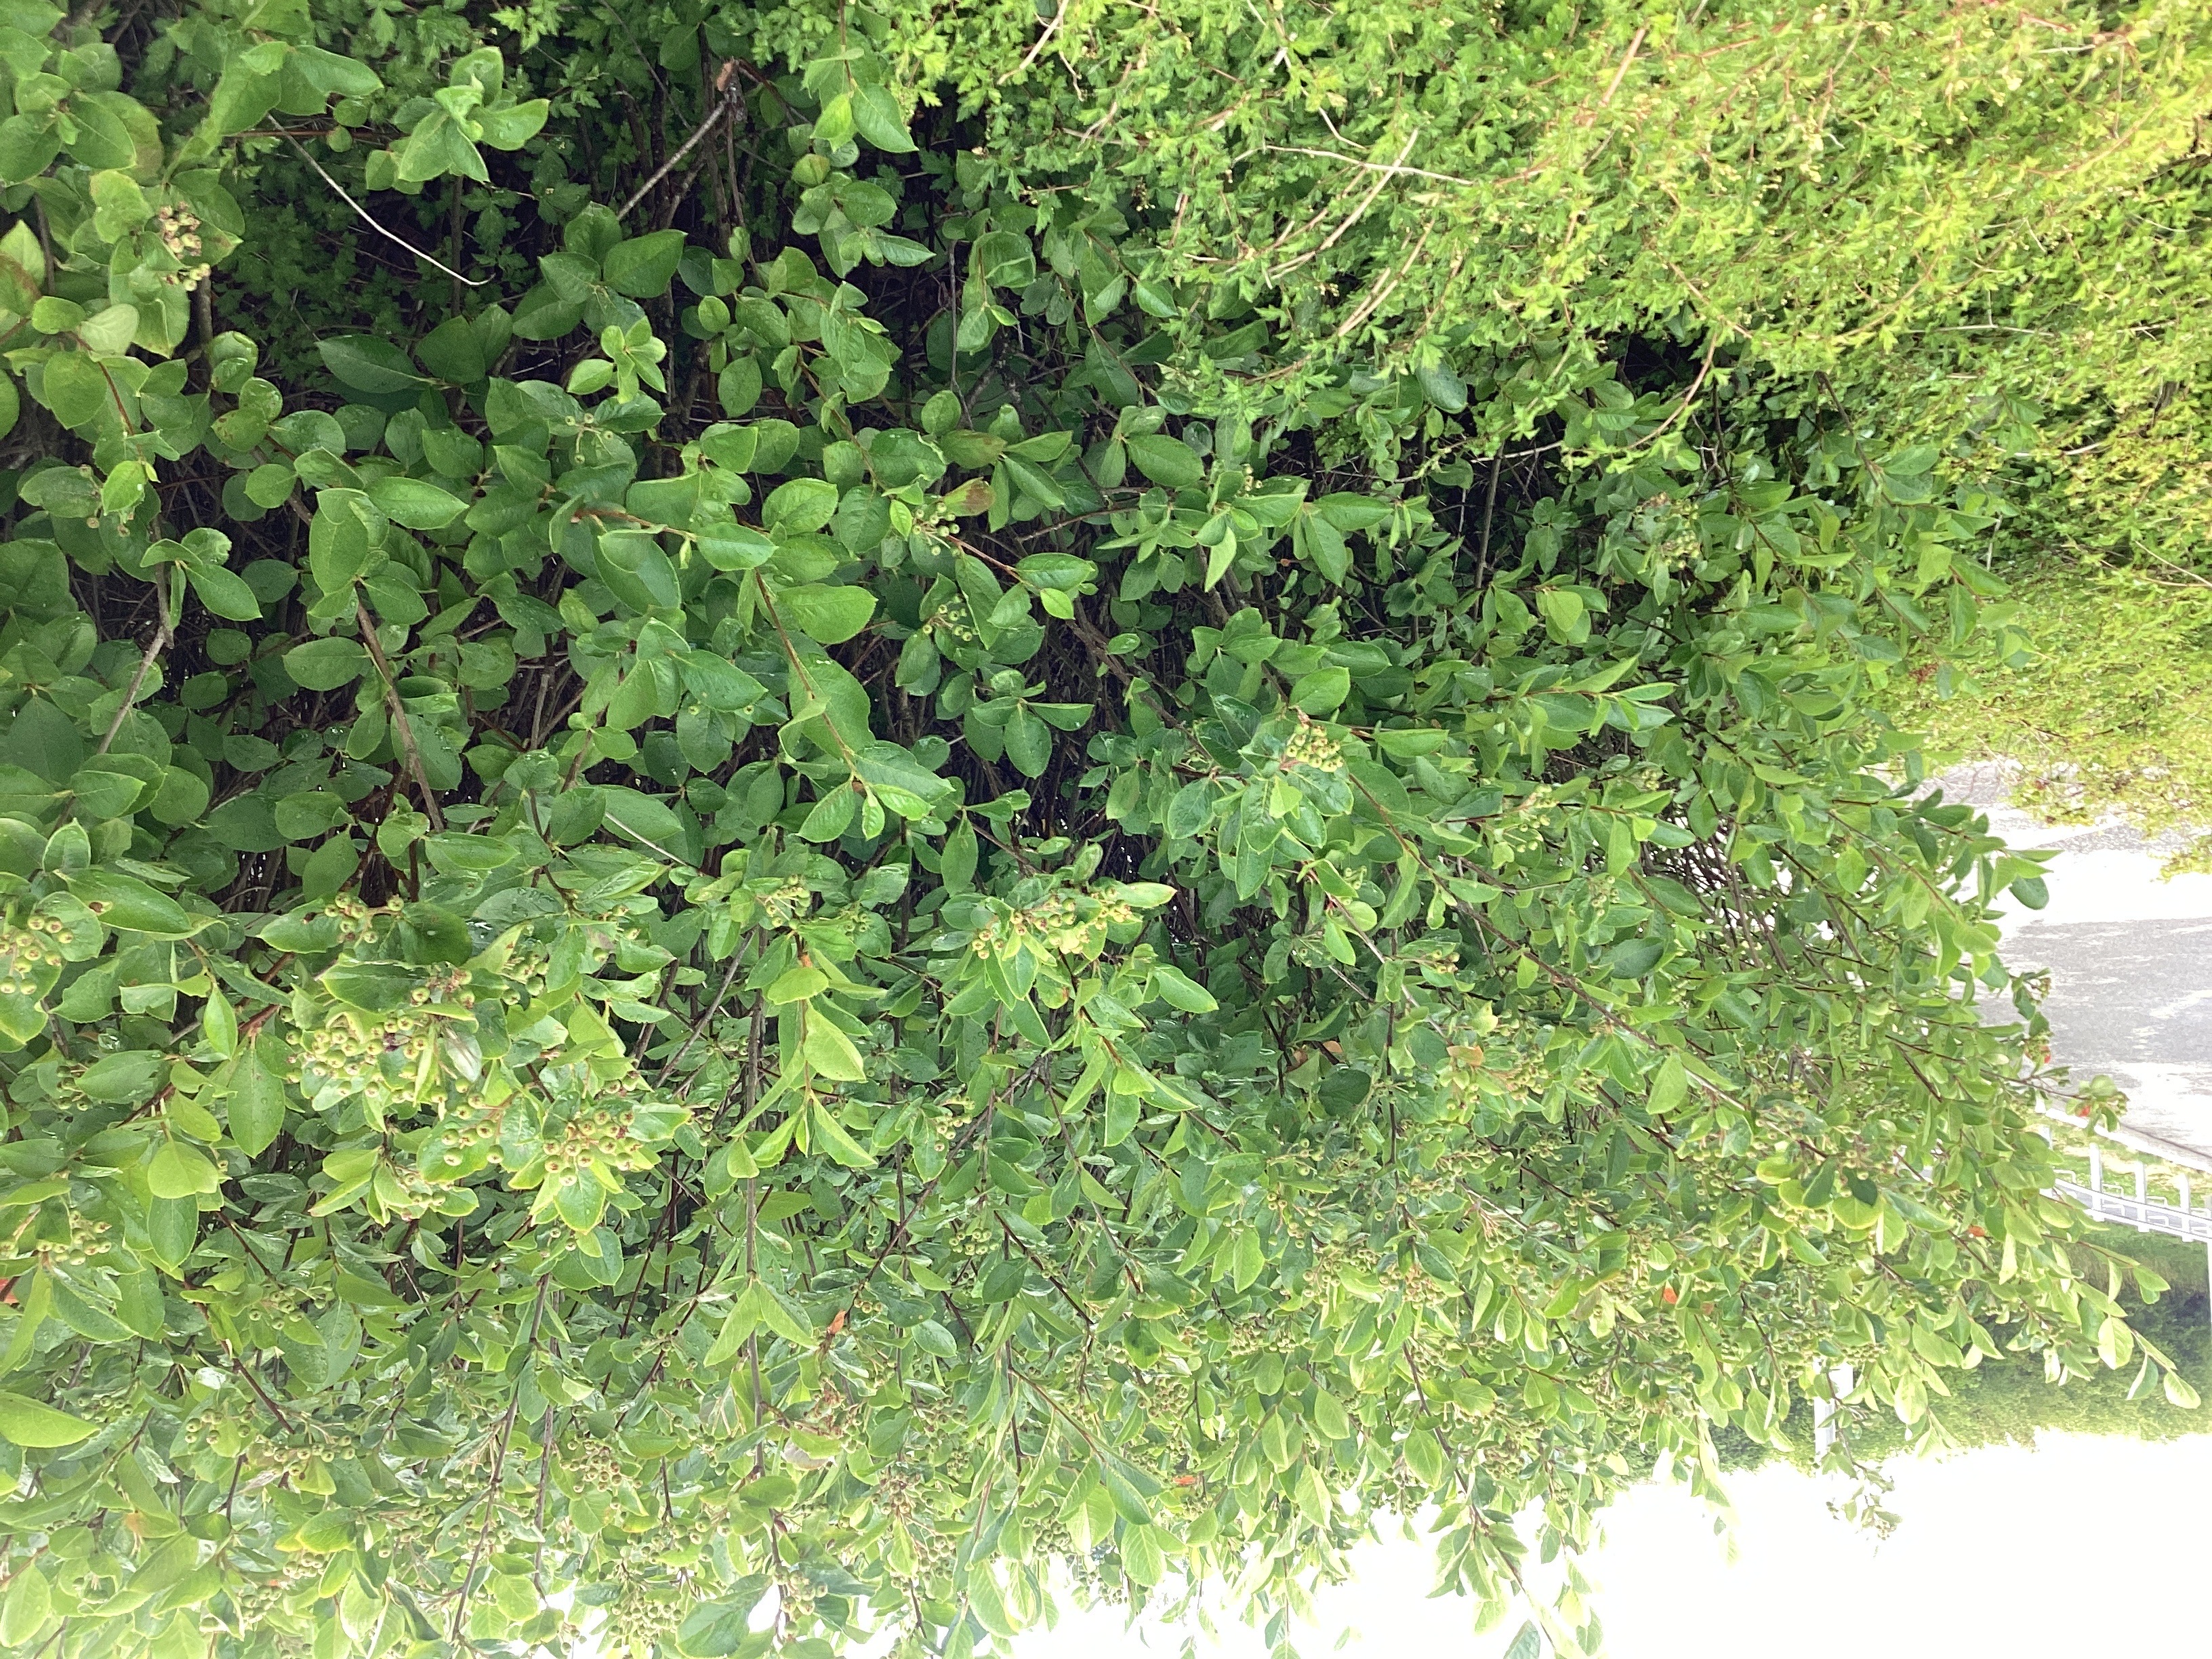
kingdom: Plantae
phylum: Tracheophyta
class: Magnoliopsida
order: Rosales
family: Rosaceae
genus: Aronia
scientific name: Aronia melanocarpa
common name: svartsurbær
